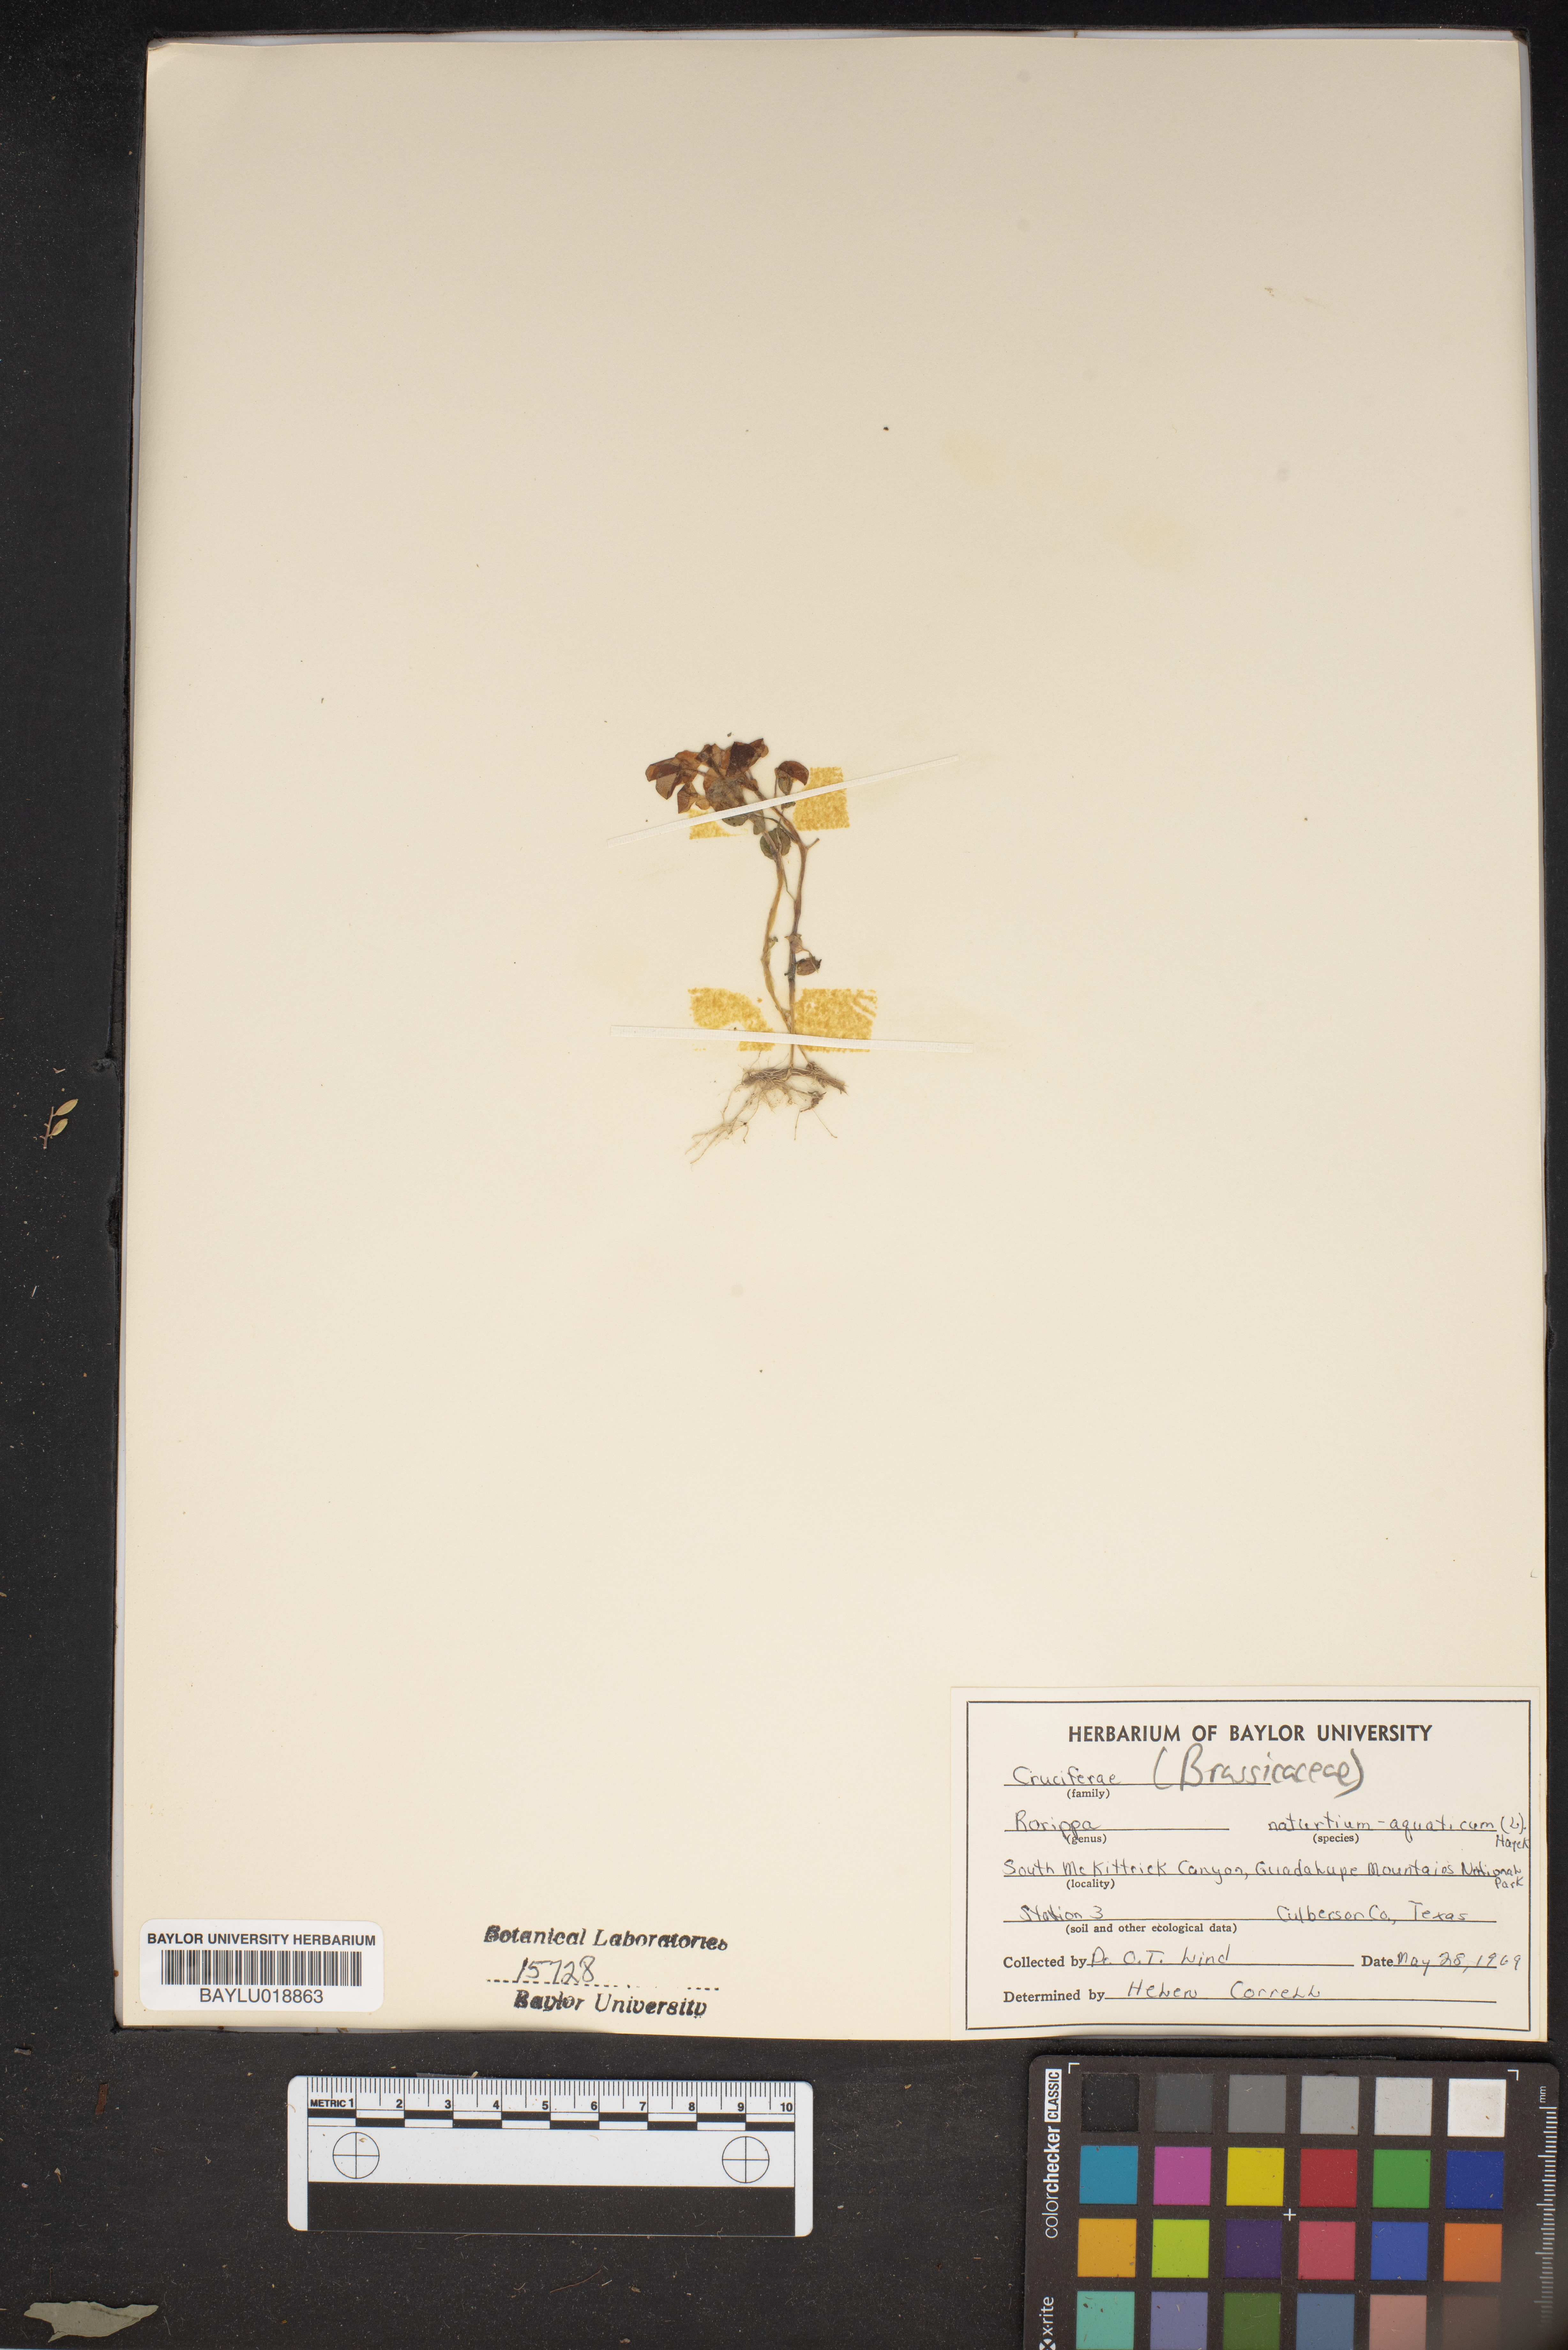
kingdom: Plantae
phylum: Tracheophyta
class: Magnoliopsida
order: Brassicales
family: Brassicaceae
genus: Nasturtium
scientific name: Nasturtium officinale
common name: Watercress
